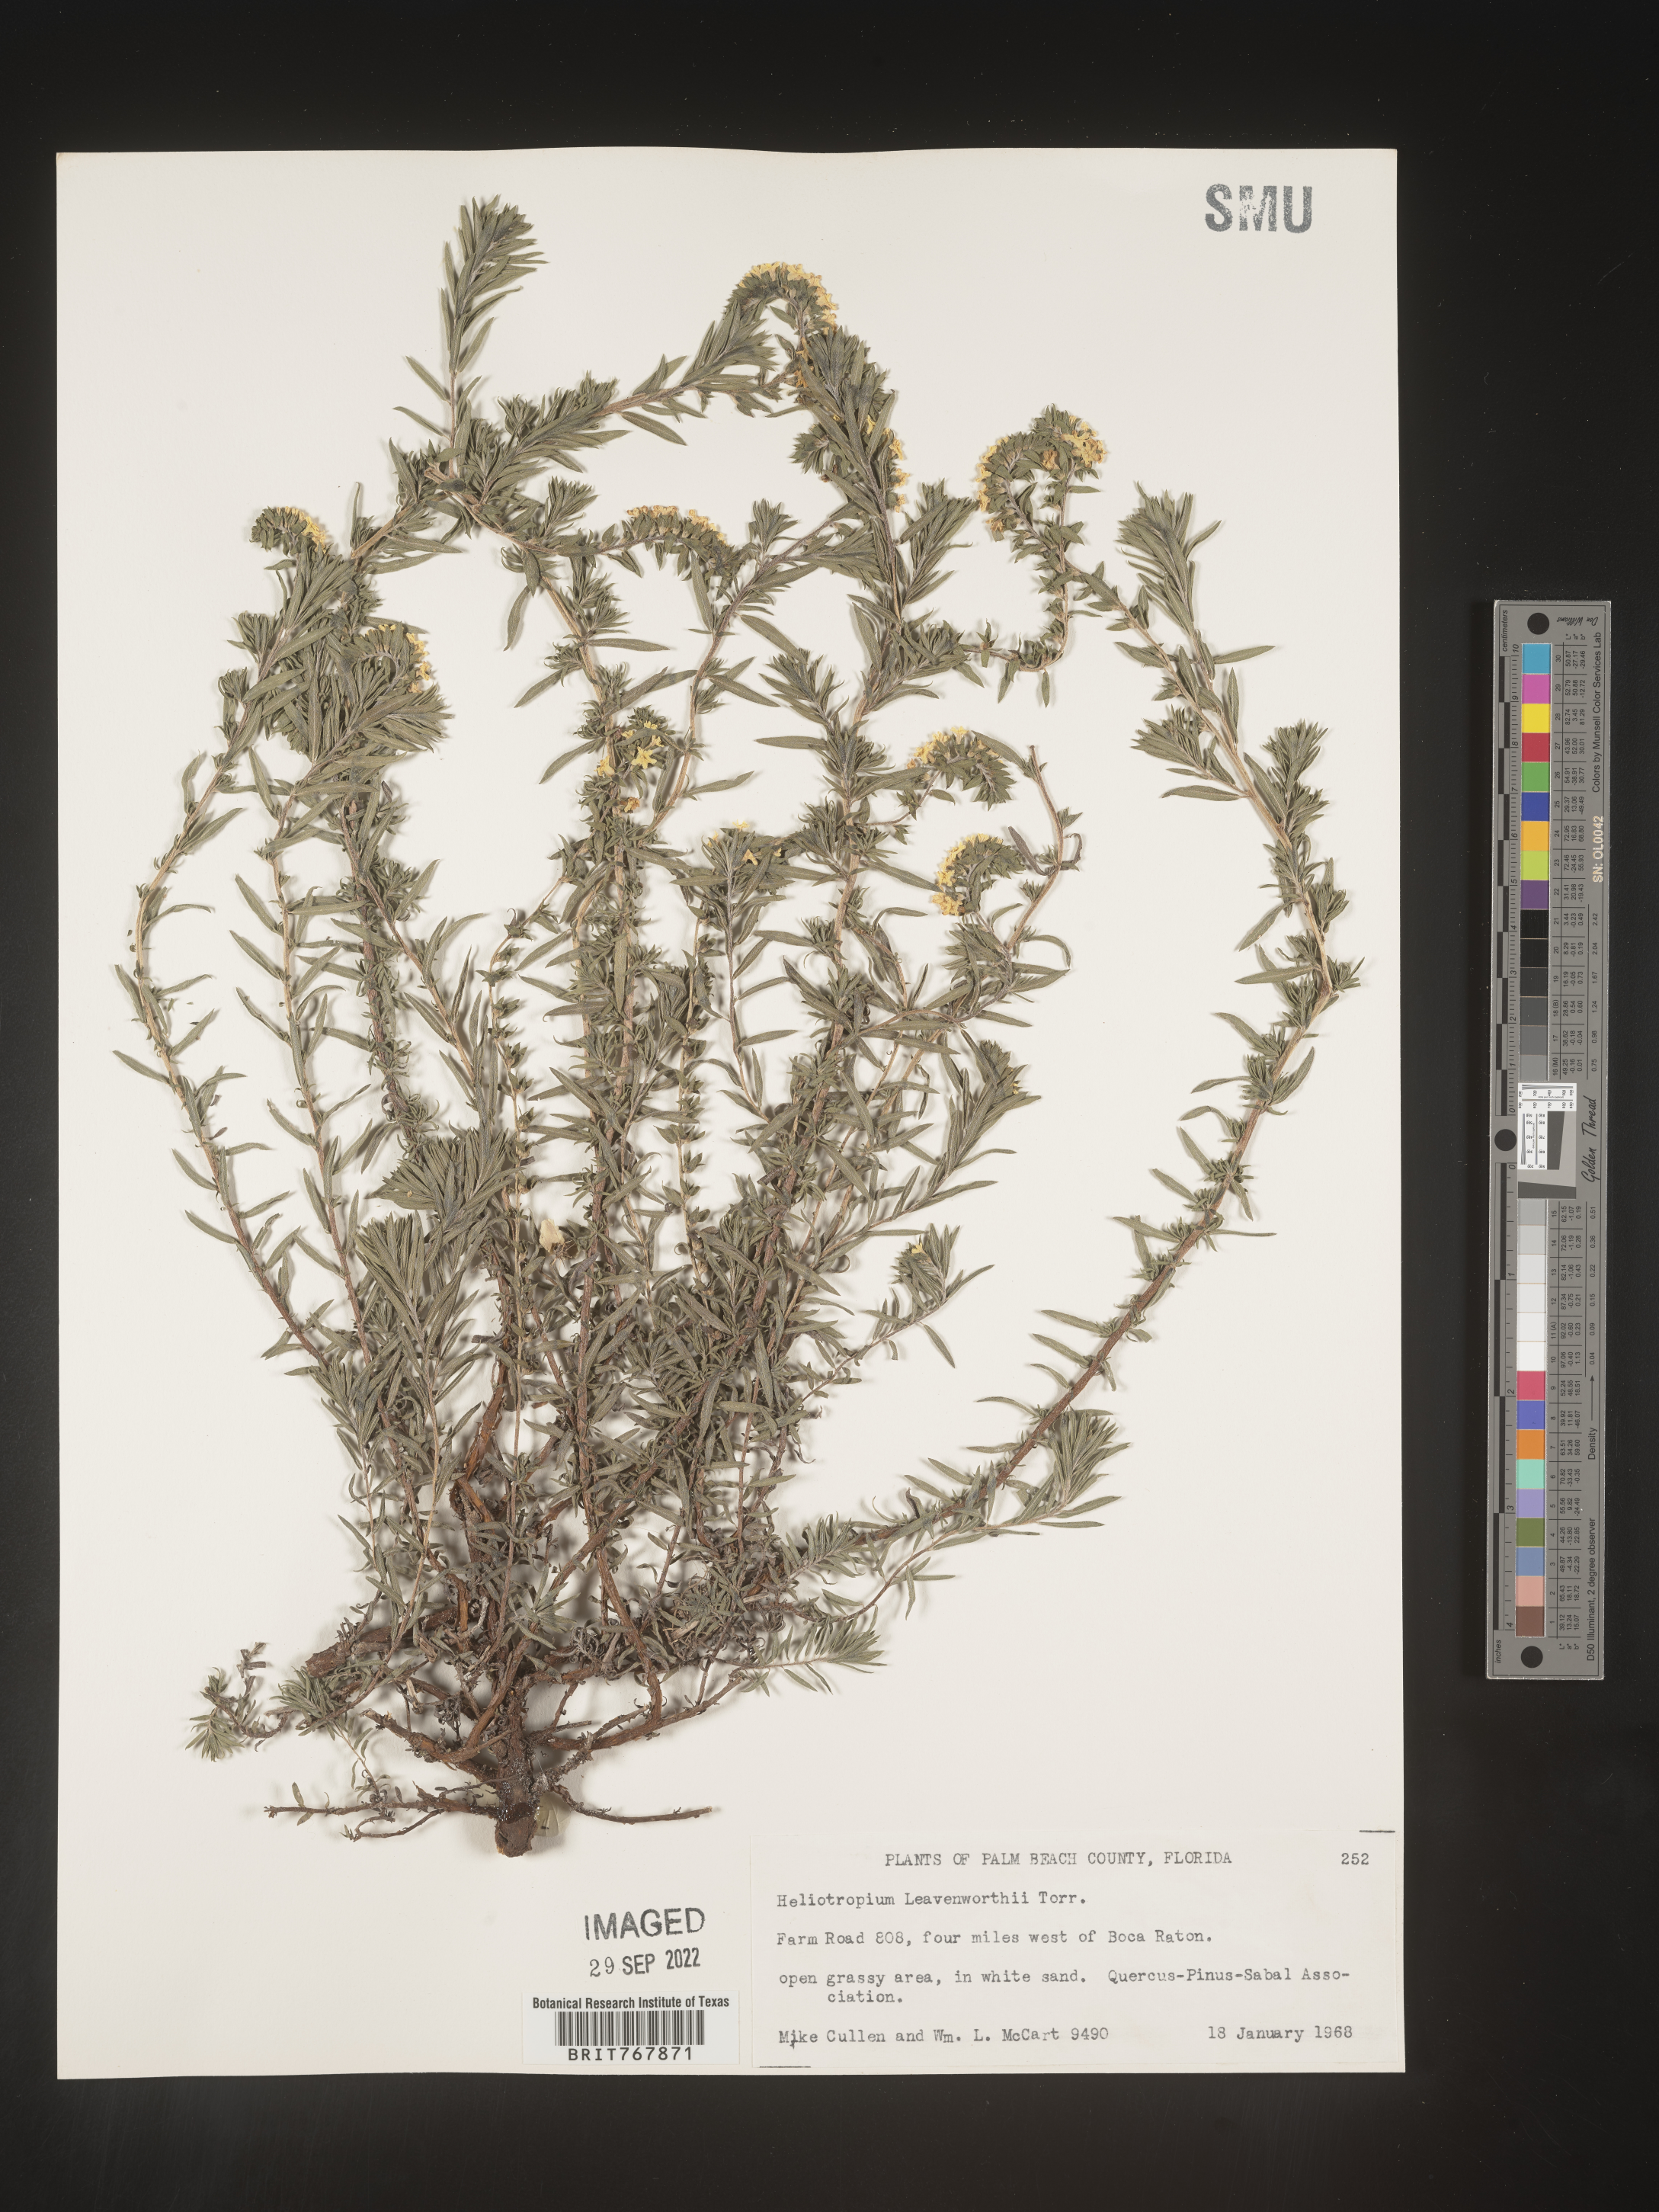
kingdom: Plantae
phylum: Tracheophyta
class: Magnoliopsida
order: Boraginales
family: Heliotropiaceae
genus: Heliotropium
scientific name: Heliotropium leavenworthii
